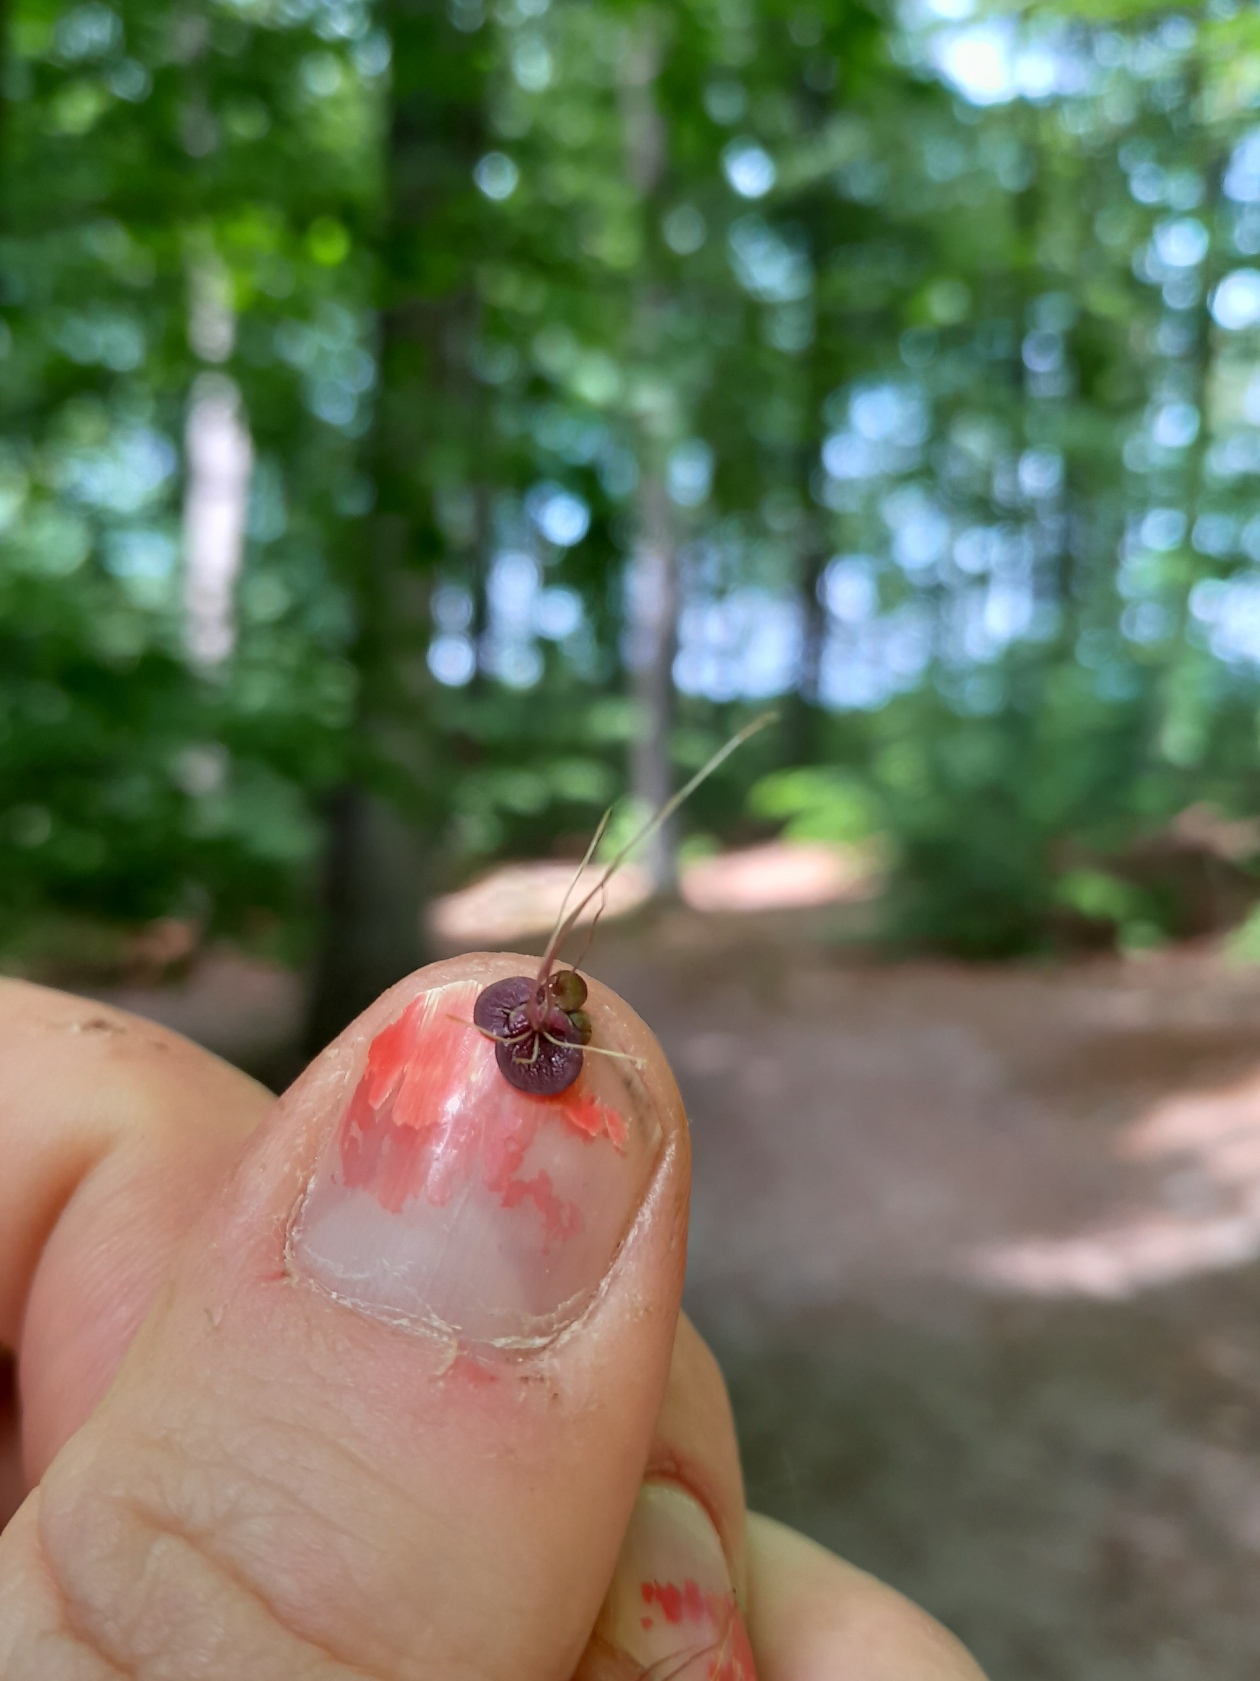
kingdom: Plantae
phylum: Tracheophyta
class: Liliopsida
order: Alismatales
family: Araceae
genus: Spirodela
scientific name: Spirodela polyrhiza
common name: Stor andemad
